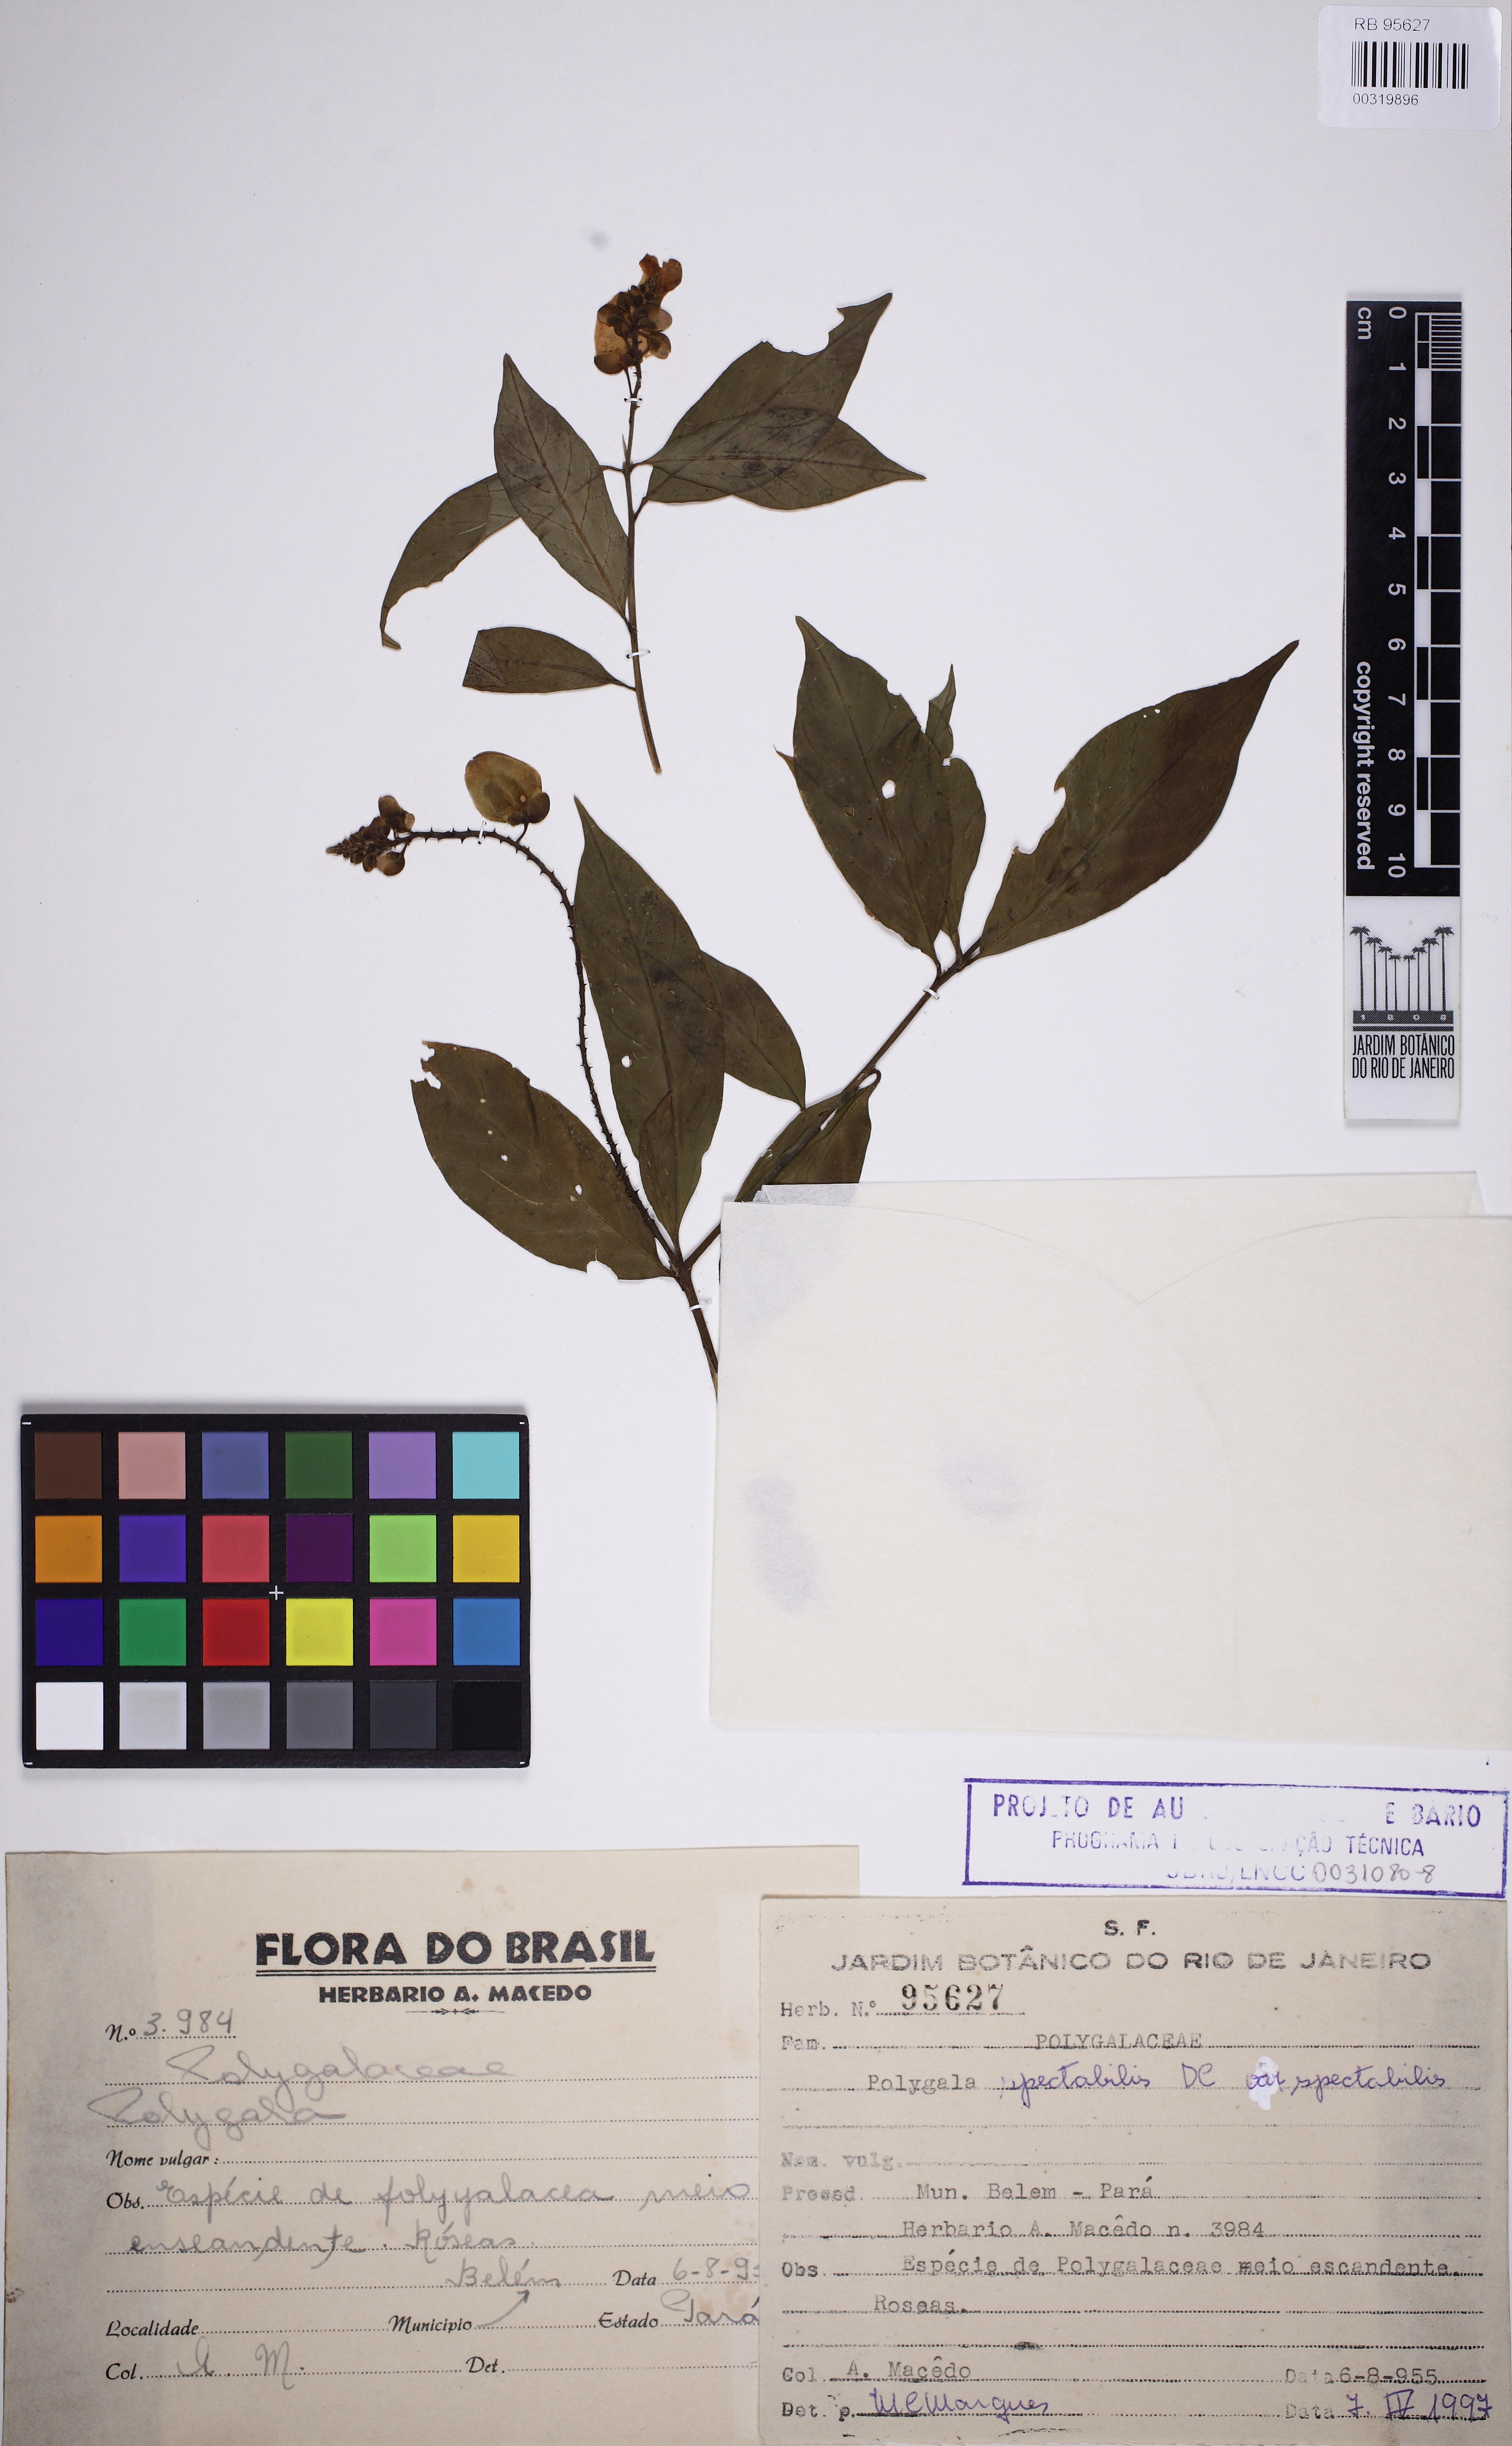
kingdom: Plantae
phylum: Tracheophyta
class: Magnoliopsida
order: Fabales
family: Polygalaceae
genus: Caamembeca
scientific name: Caamembeca spectabilis
